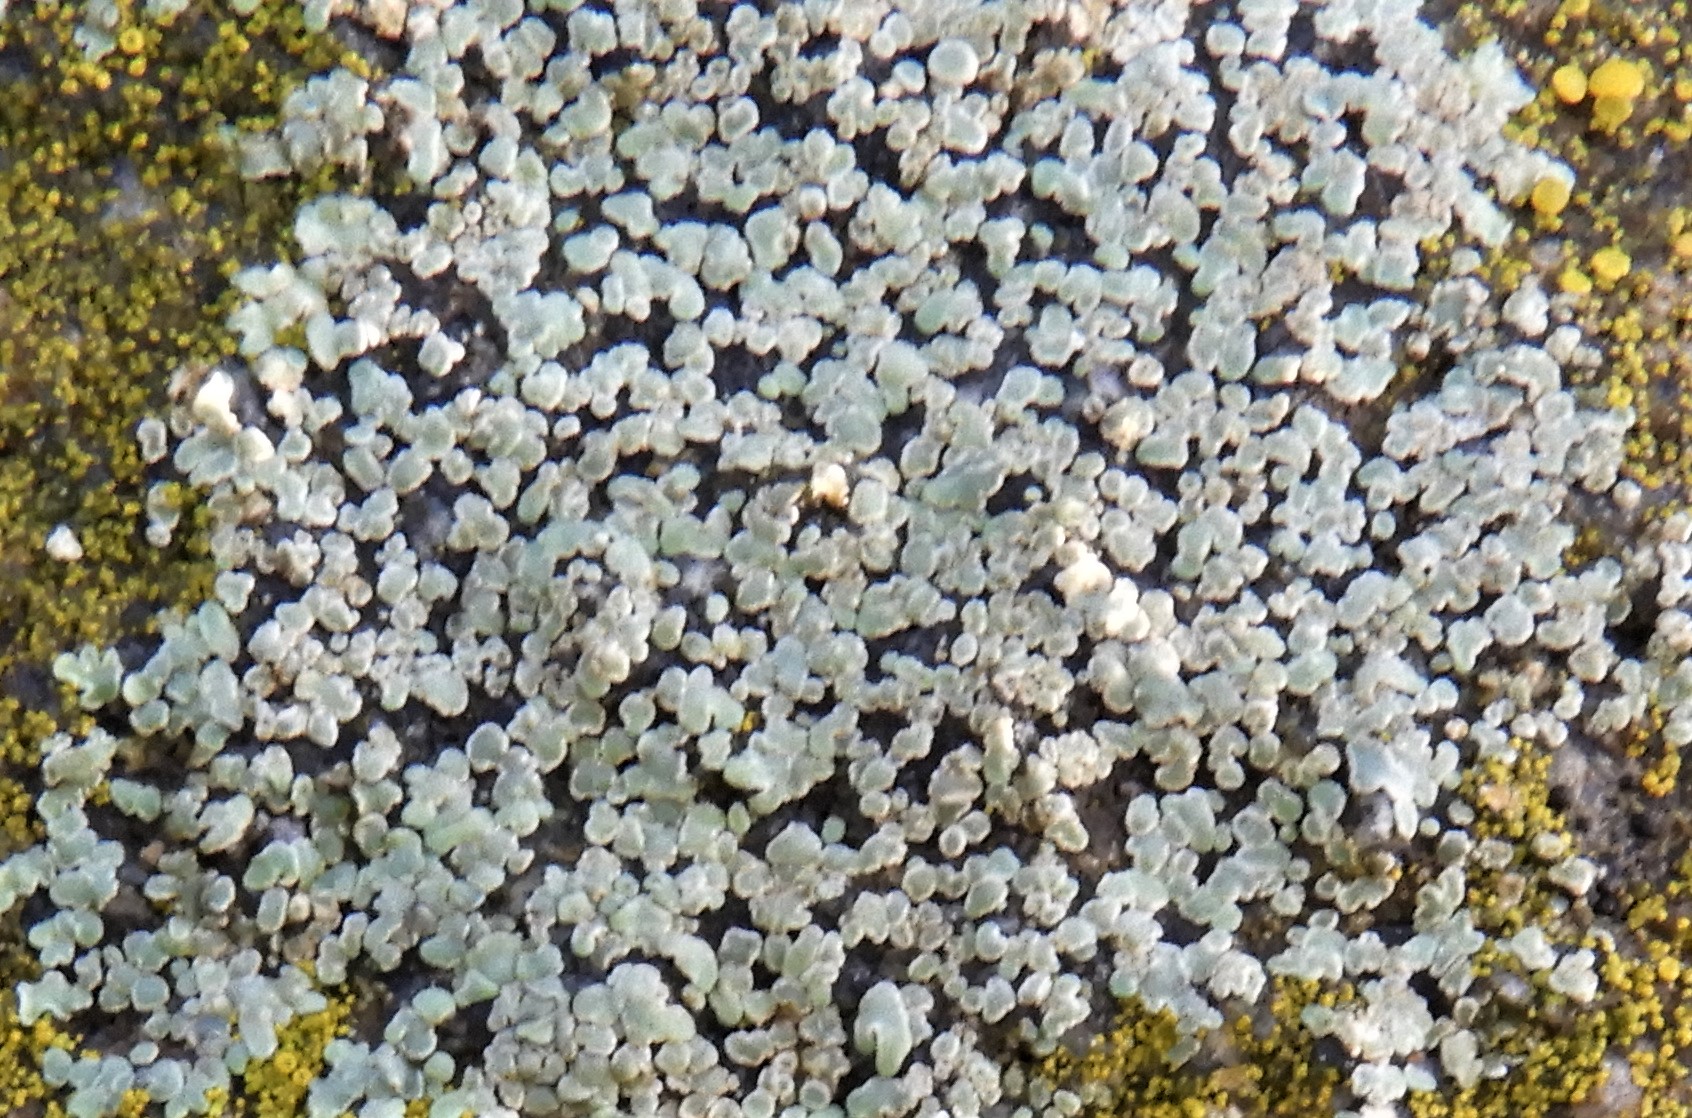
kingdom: Fungi
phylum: Ascomycota
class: Lecanoromycetes
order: Lecanorales
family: Lecanoraceae
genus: Protoparmeliopsis
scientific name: Protoparmeliopsis muralis
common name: randfliget kantskivelav
